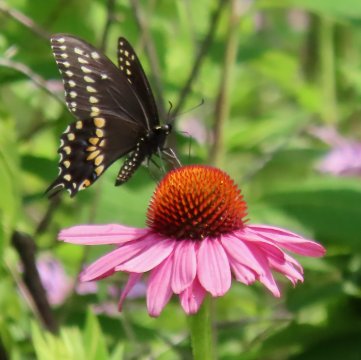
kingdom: Animalia
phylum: Arthropoda
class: Insecta
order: Lepidoptera
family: Papilionidae
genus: Papilio
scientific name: Papilio polyxenes
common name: Black Swallowtail
